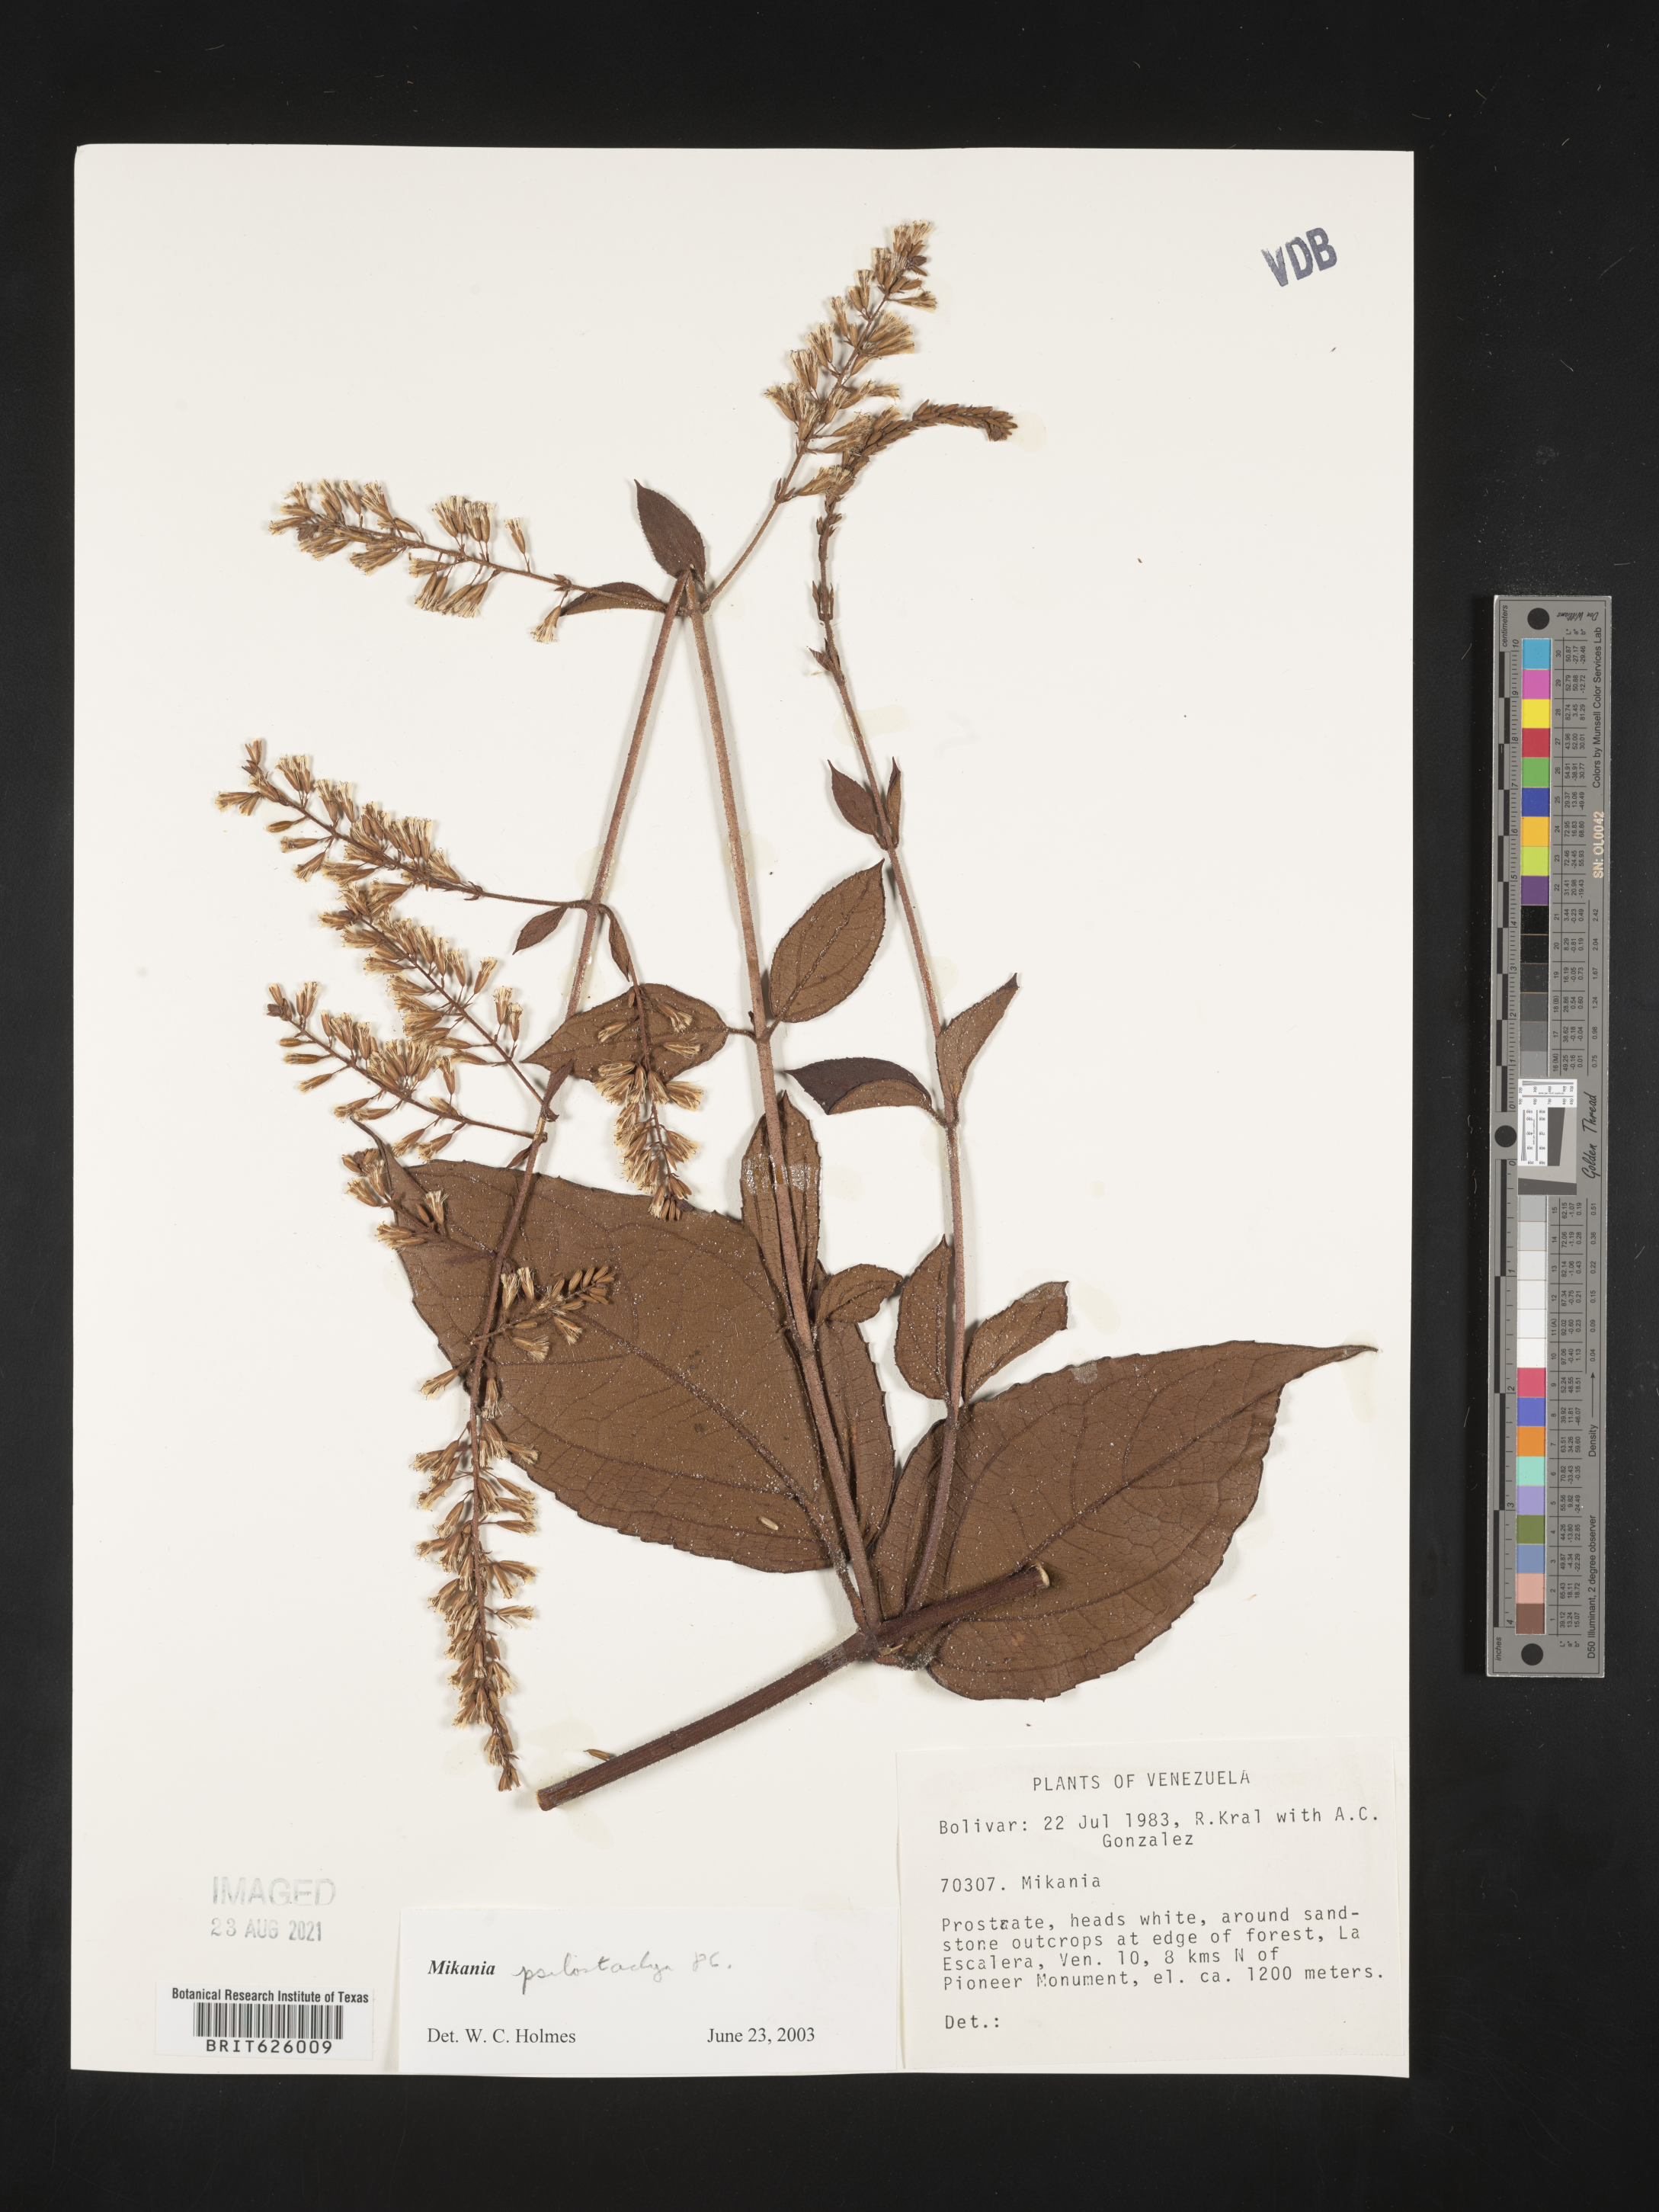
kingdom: Plantae
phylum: Tracheophyta
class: Magnoliopsida
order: Asterales
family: Asteraceae
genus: Mikania
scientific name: Mikania psilostachya
